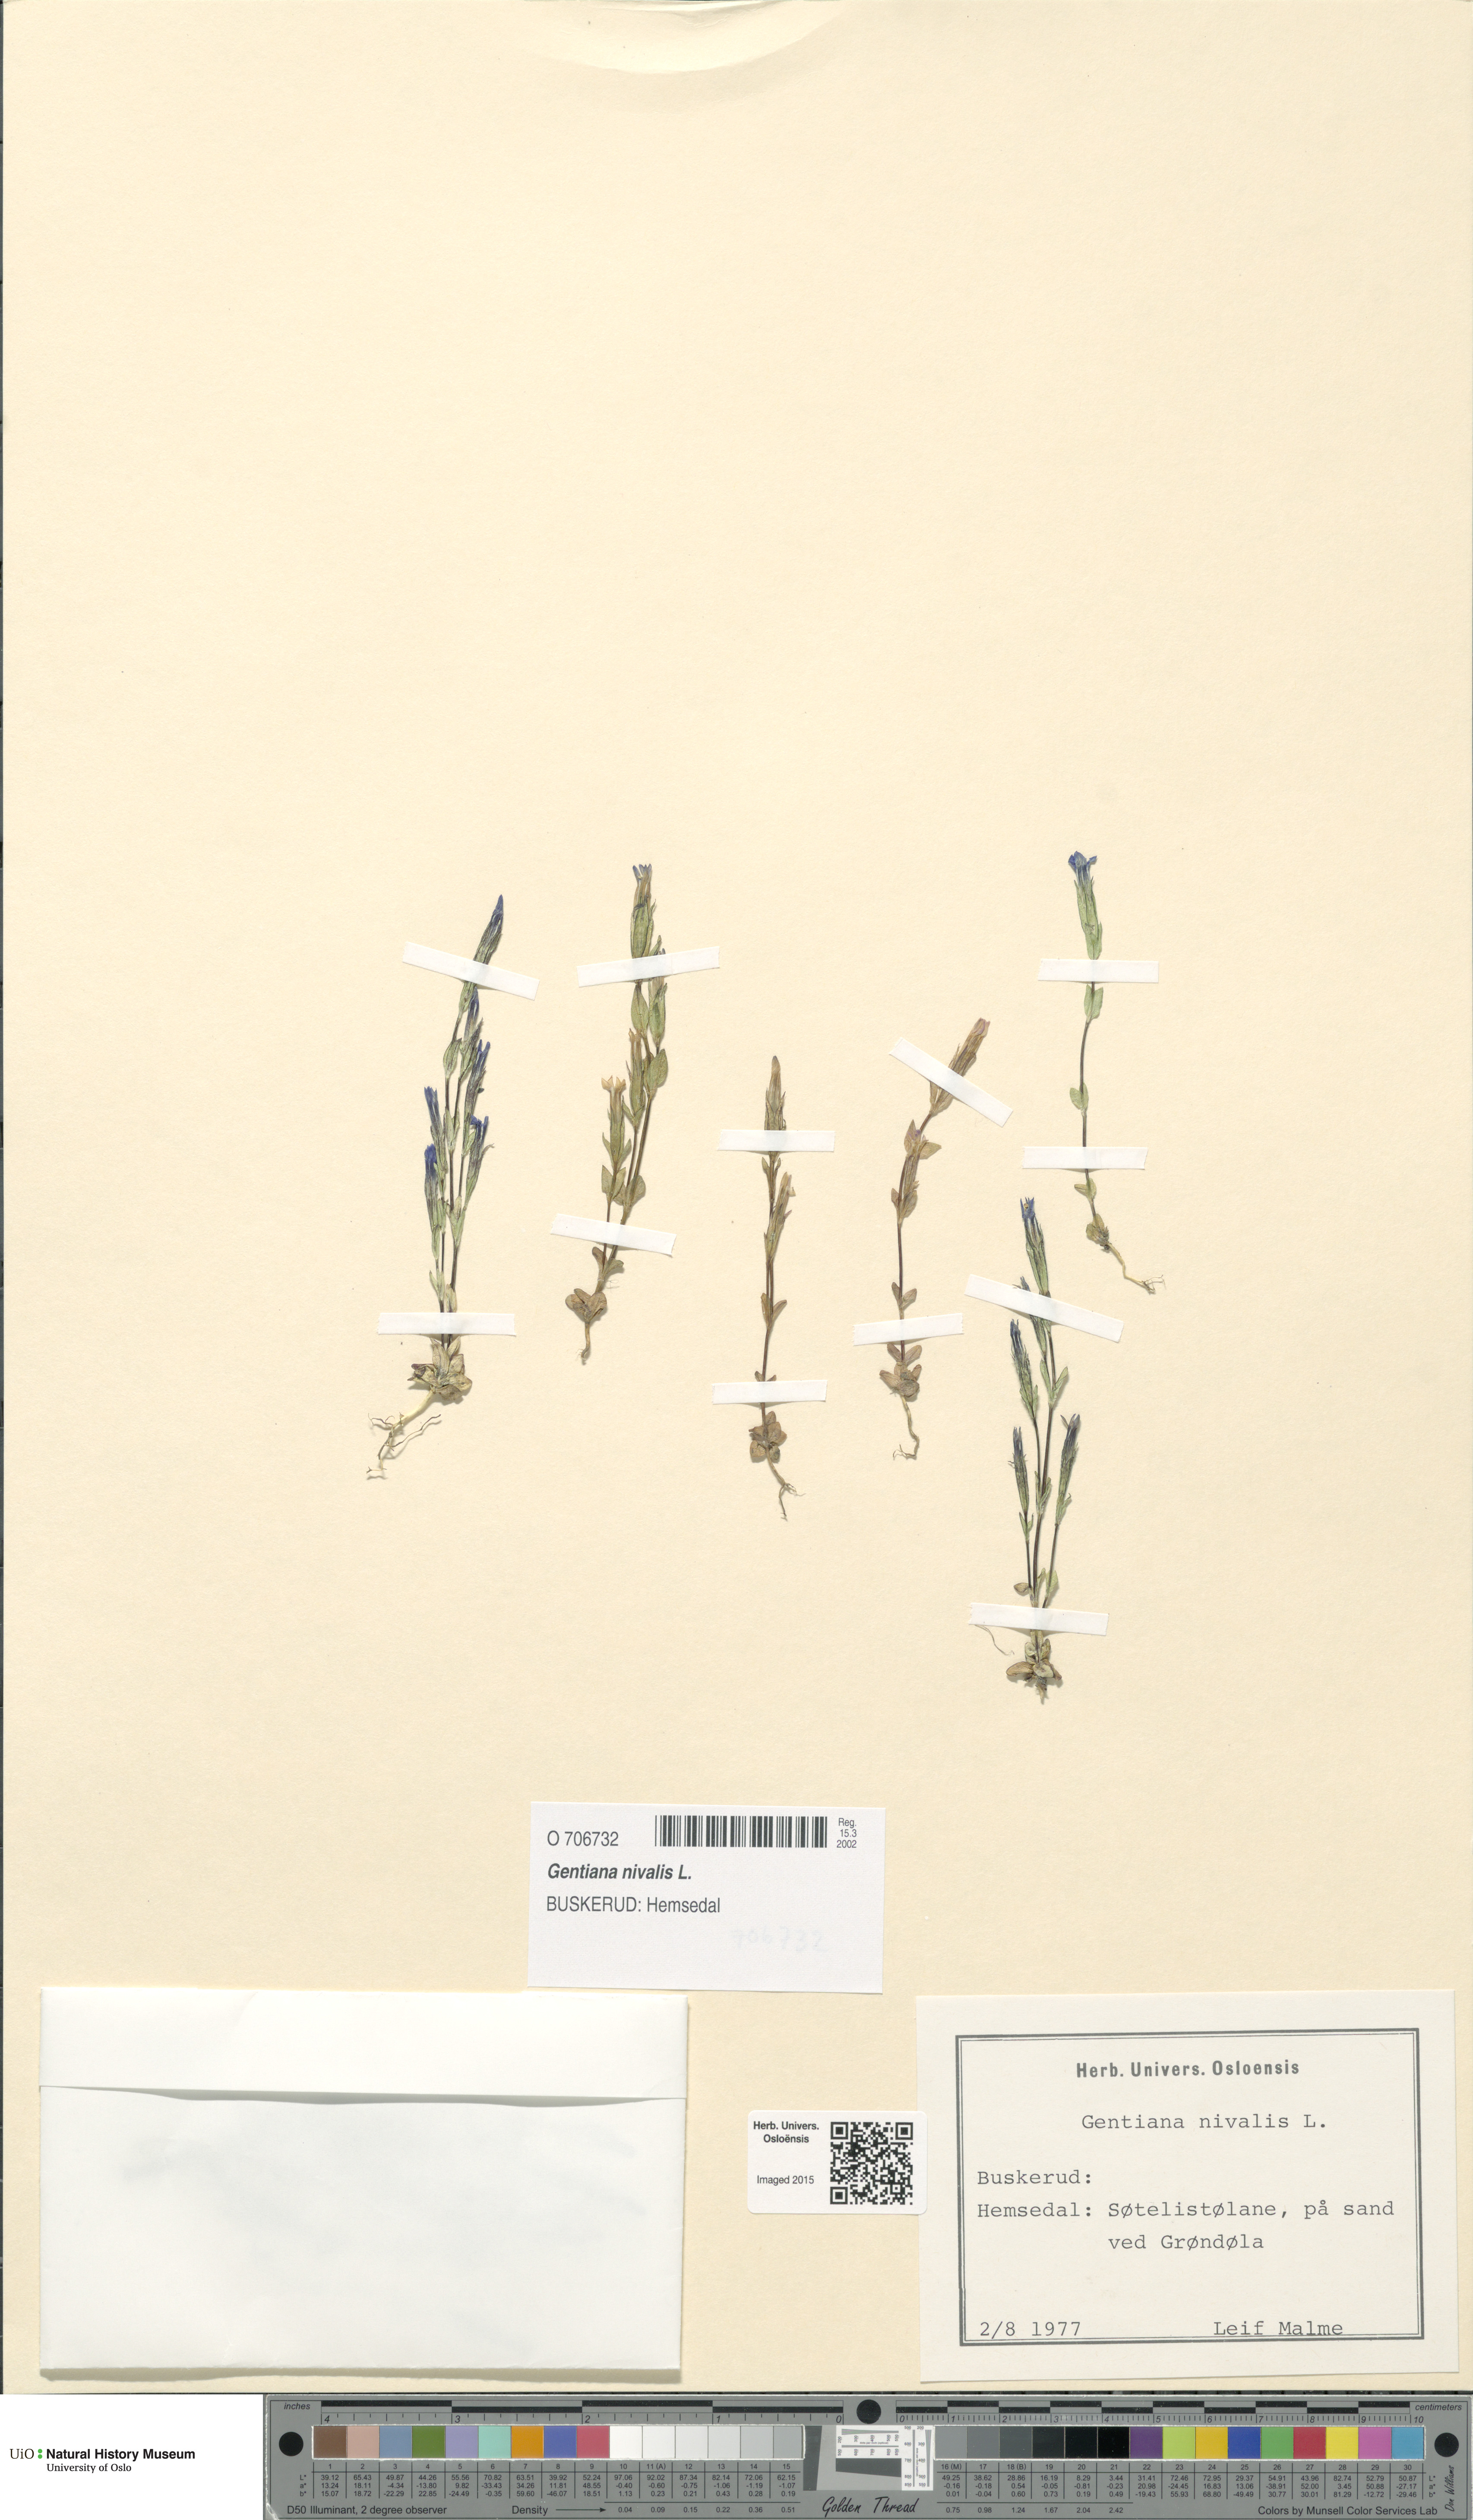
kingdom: Plantae
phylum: Tracheophyta
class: Magnoliopsida
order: Gentianales
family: Gentianaceae
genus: Gentiana
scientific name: Gentiana nivalis
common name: Alpine gentian
